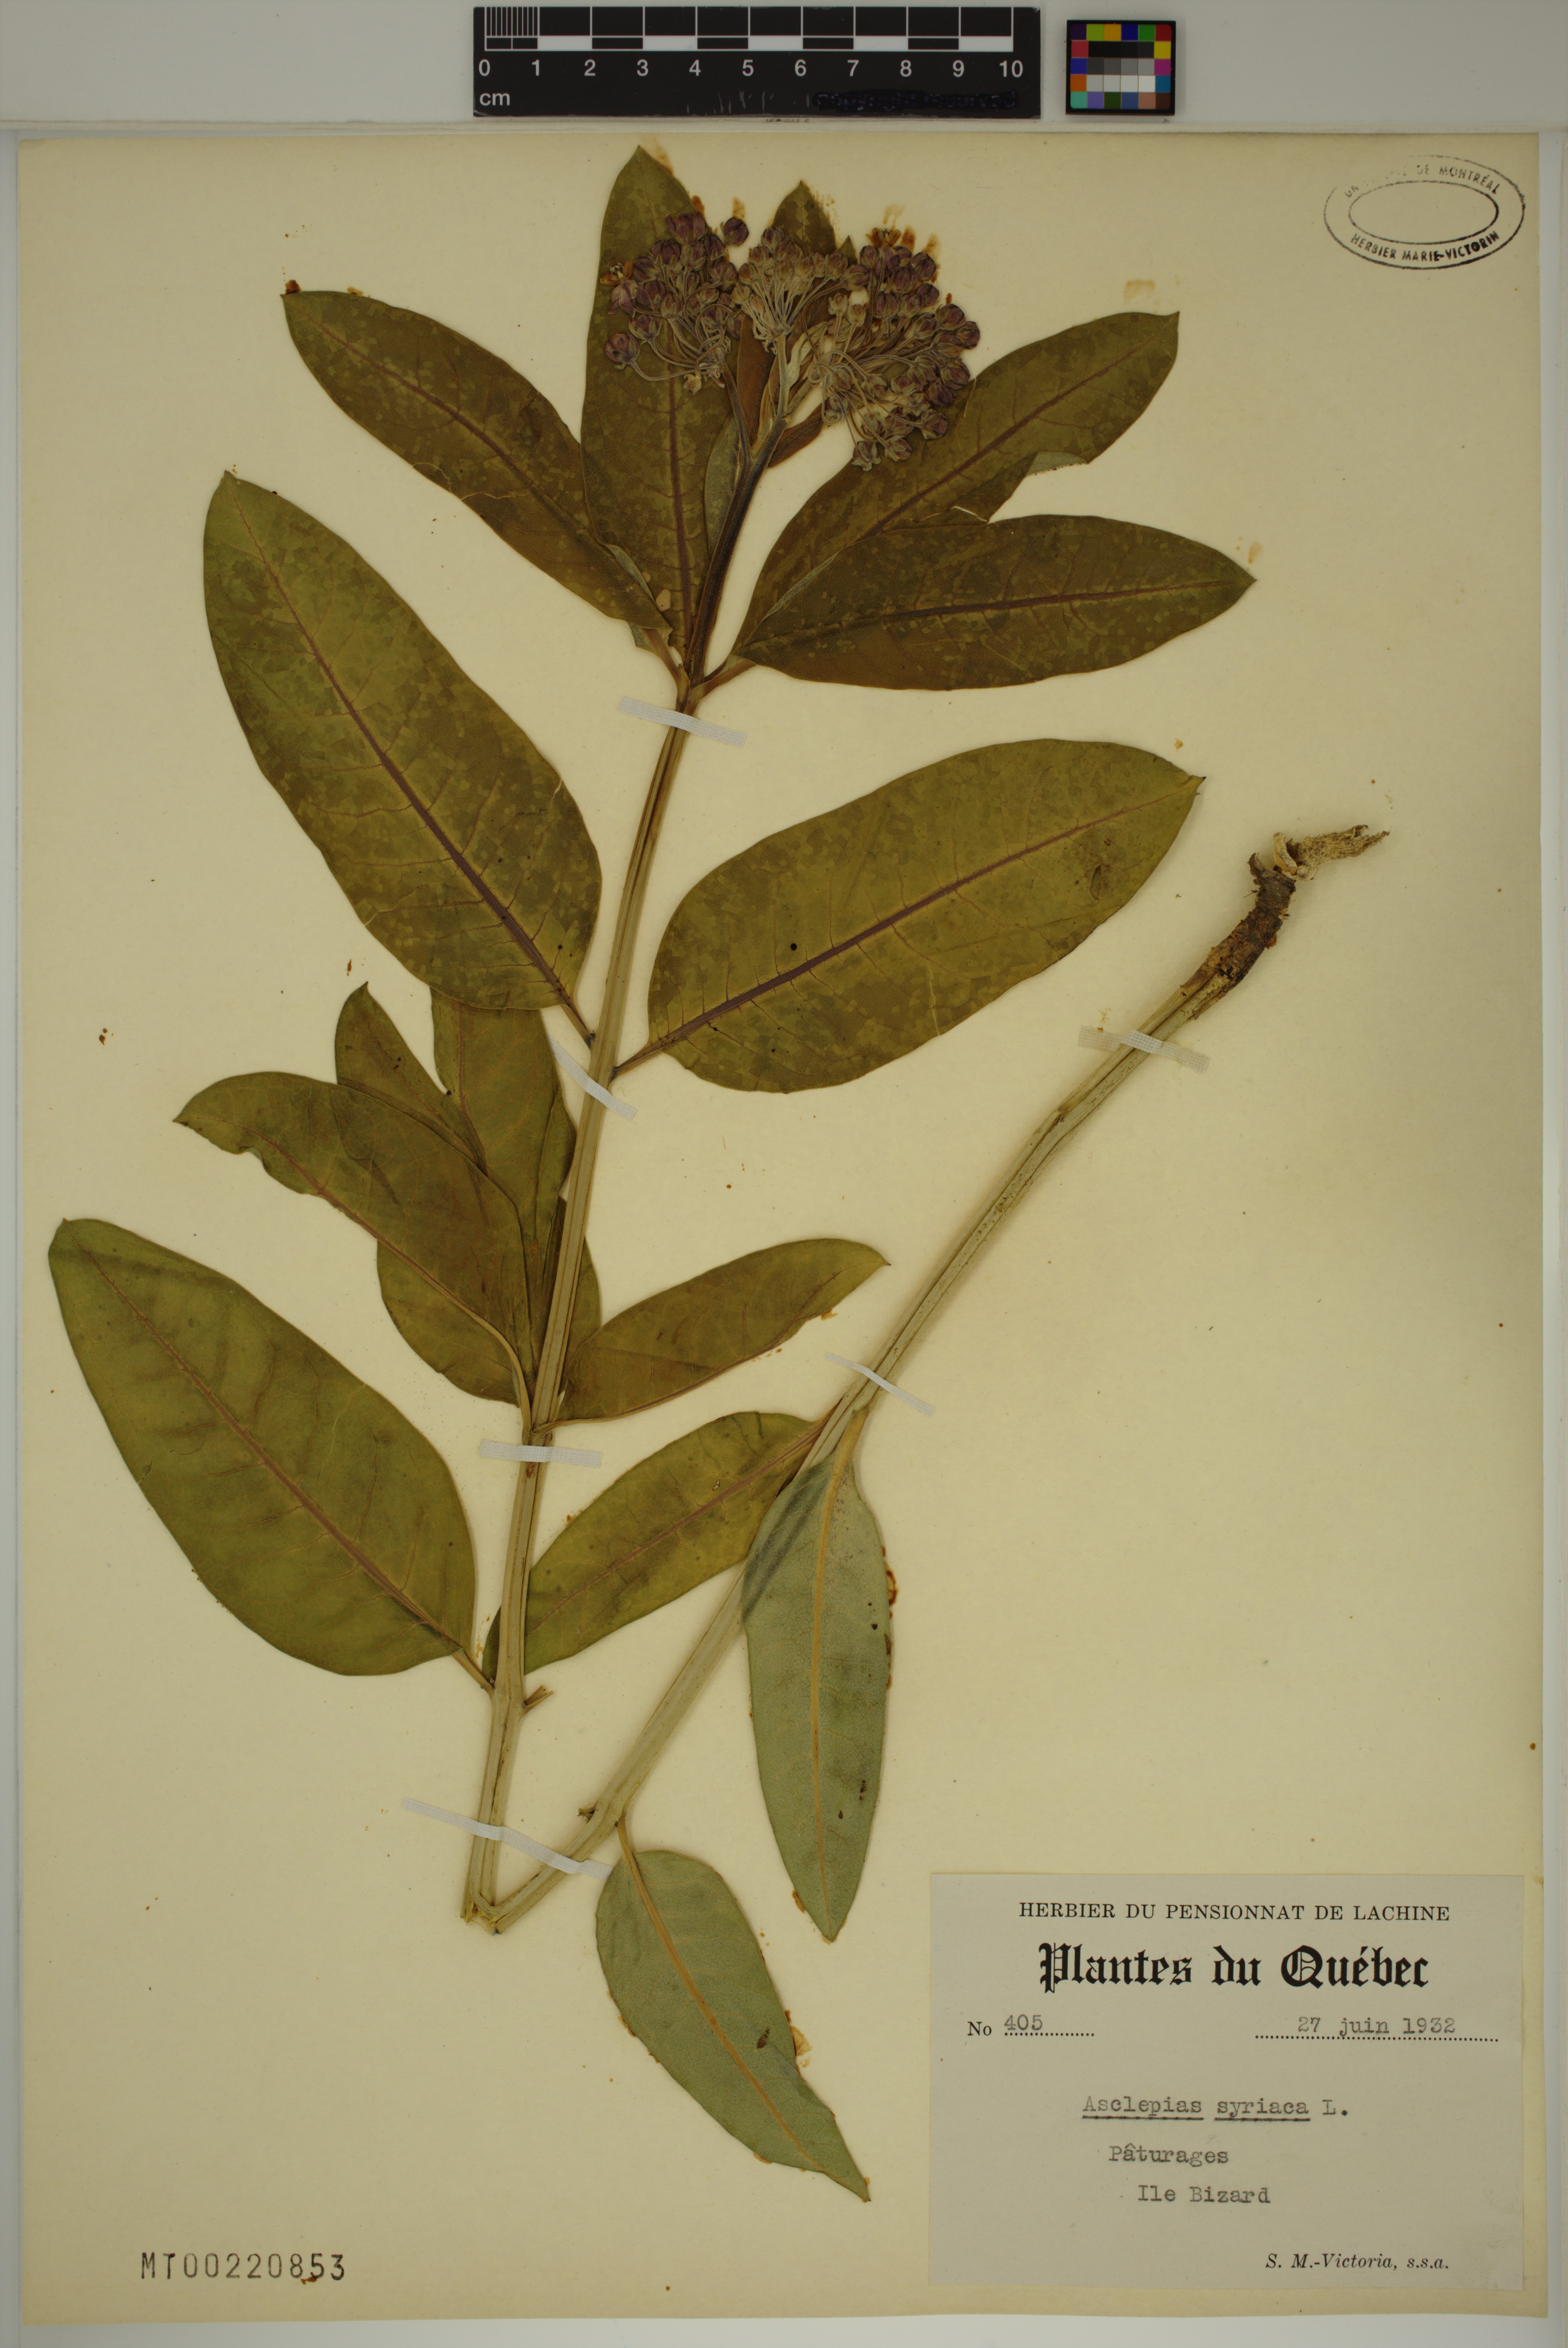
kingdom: Plantae
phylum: Tracheophyta
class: Magnoliopsida
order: Gentianales
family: Apocynaceae
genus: Asclepias
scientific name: Asclepias syriaca
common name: Common milkweed
